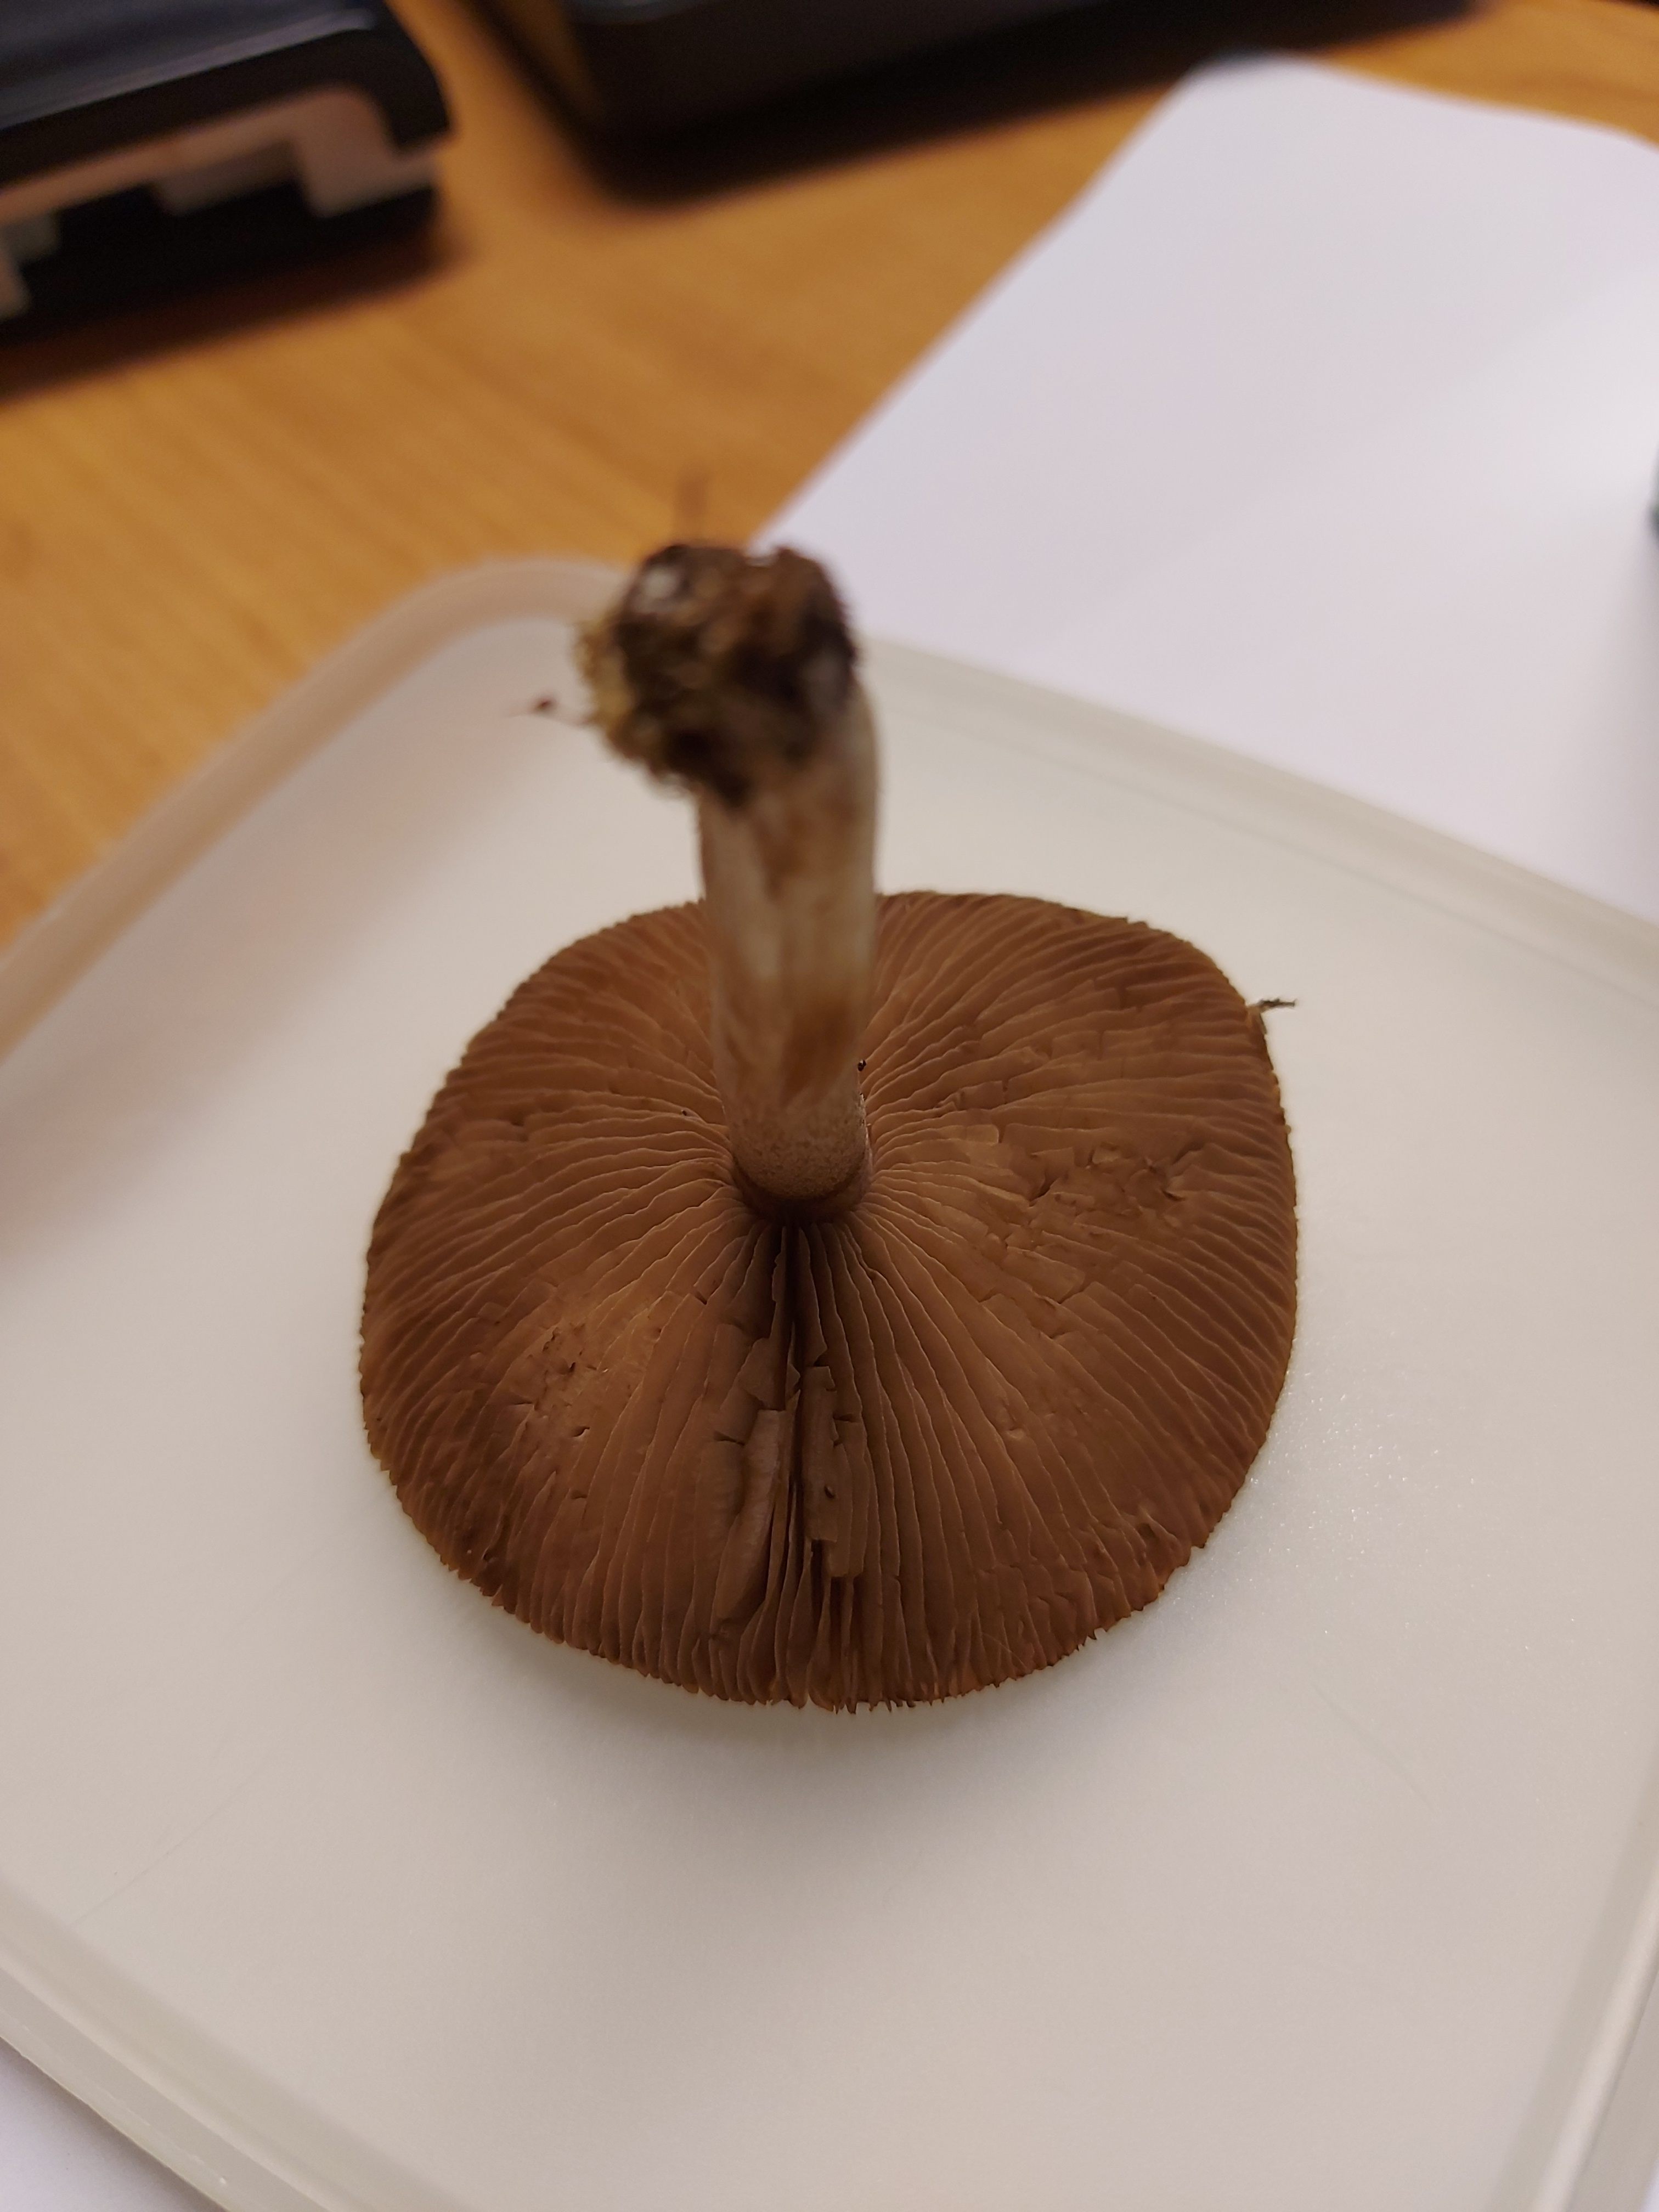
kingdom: Fungi
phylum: Basidiomycota
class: Agaricomycetes
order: Agaricales
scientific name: Agaricales
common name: champignonordenen
